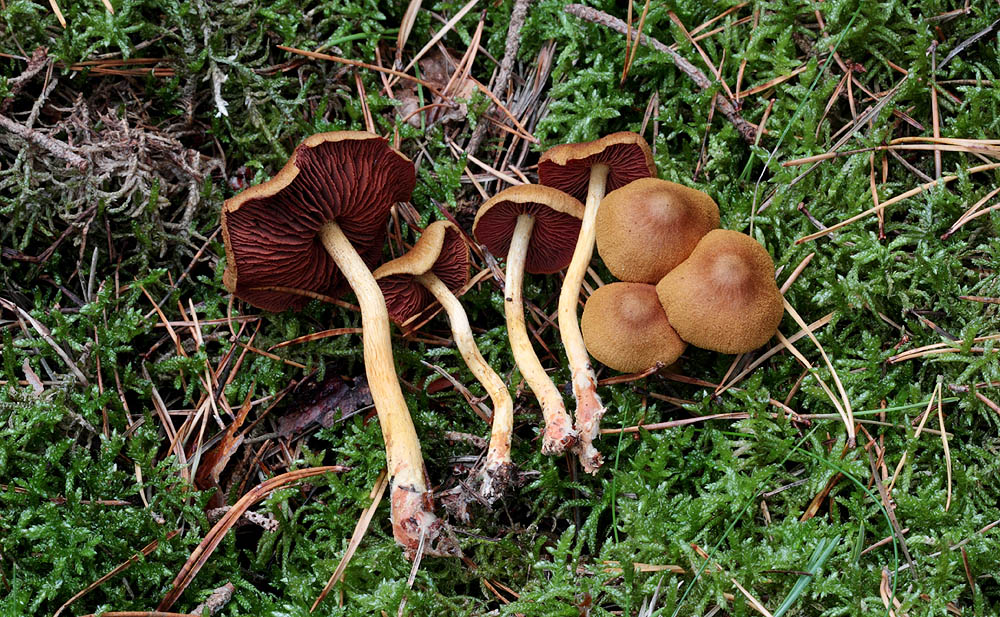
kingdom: Fungi
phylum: Basidiomycota
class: Agaricomycetes
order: Agaricales
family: Cortinariaceae
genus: Cortinarius
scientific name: Cortinarius
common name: cinnoberbladet slørhat
